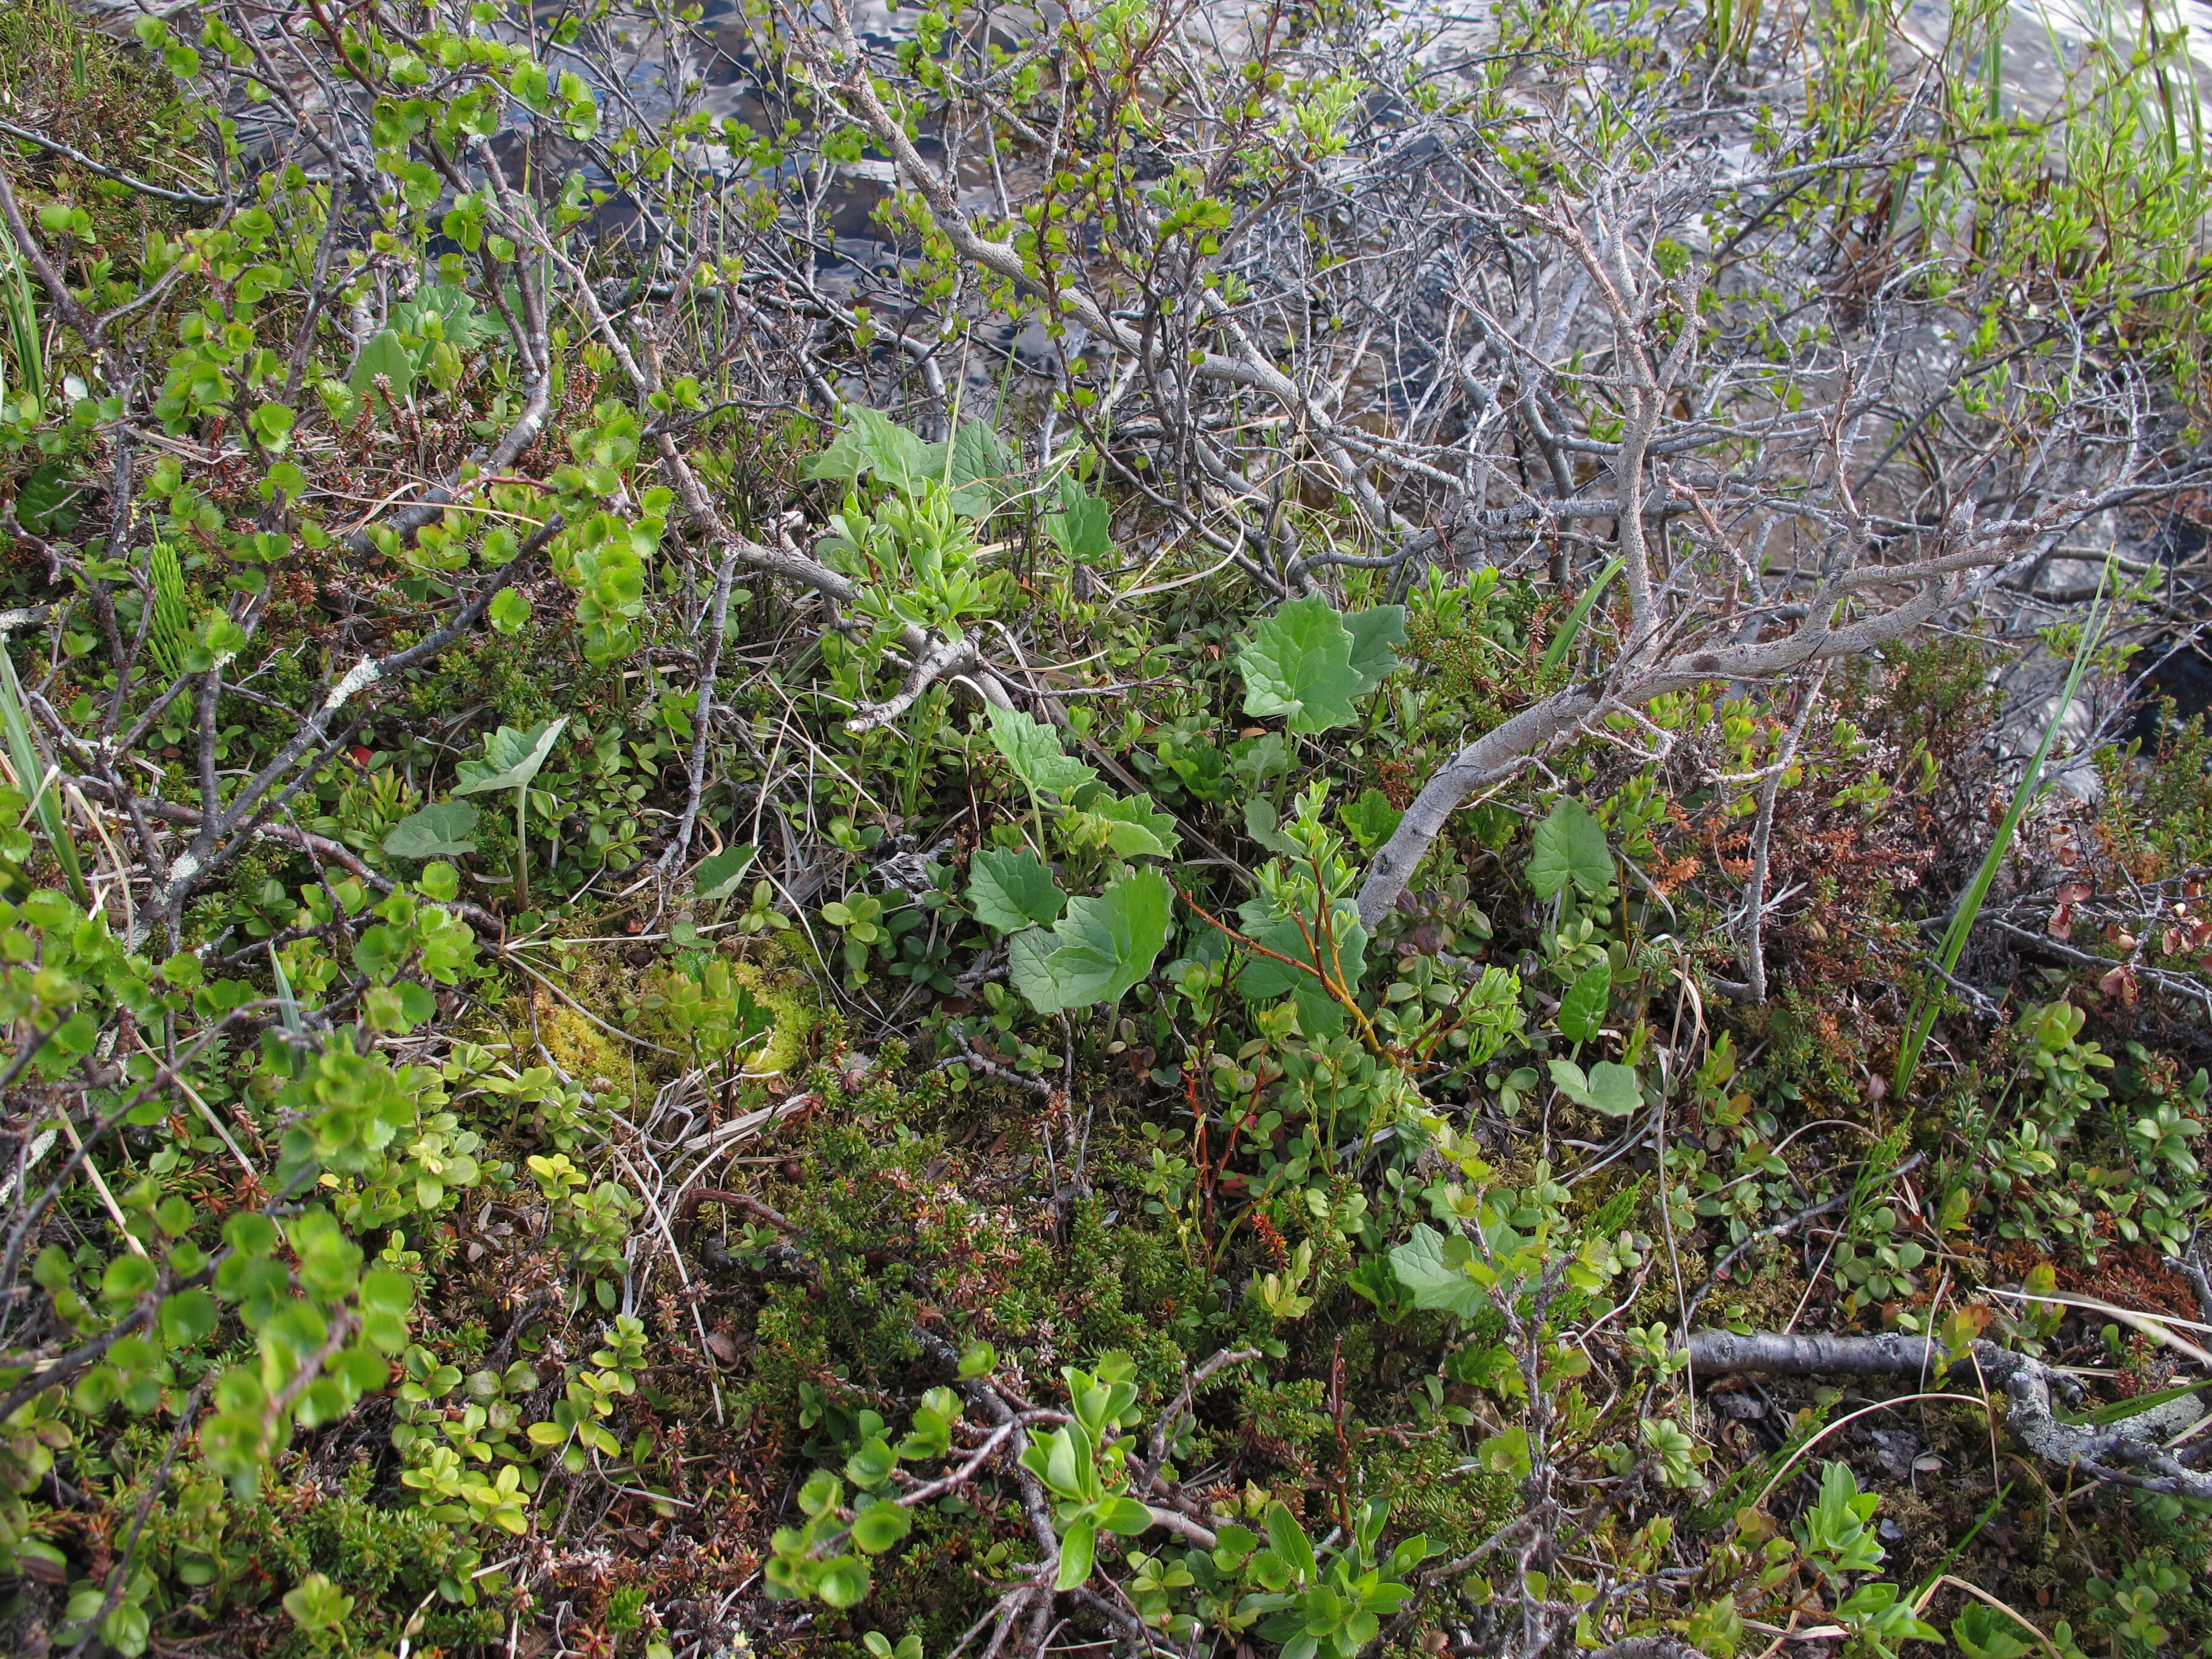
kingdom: Plantae
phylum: Tracheophyta
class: Magnoliopsida
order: Asterales
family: Asteraceae
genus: Petasites
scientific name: Petasites frigidus
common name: Arctic butterbur
